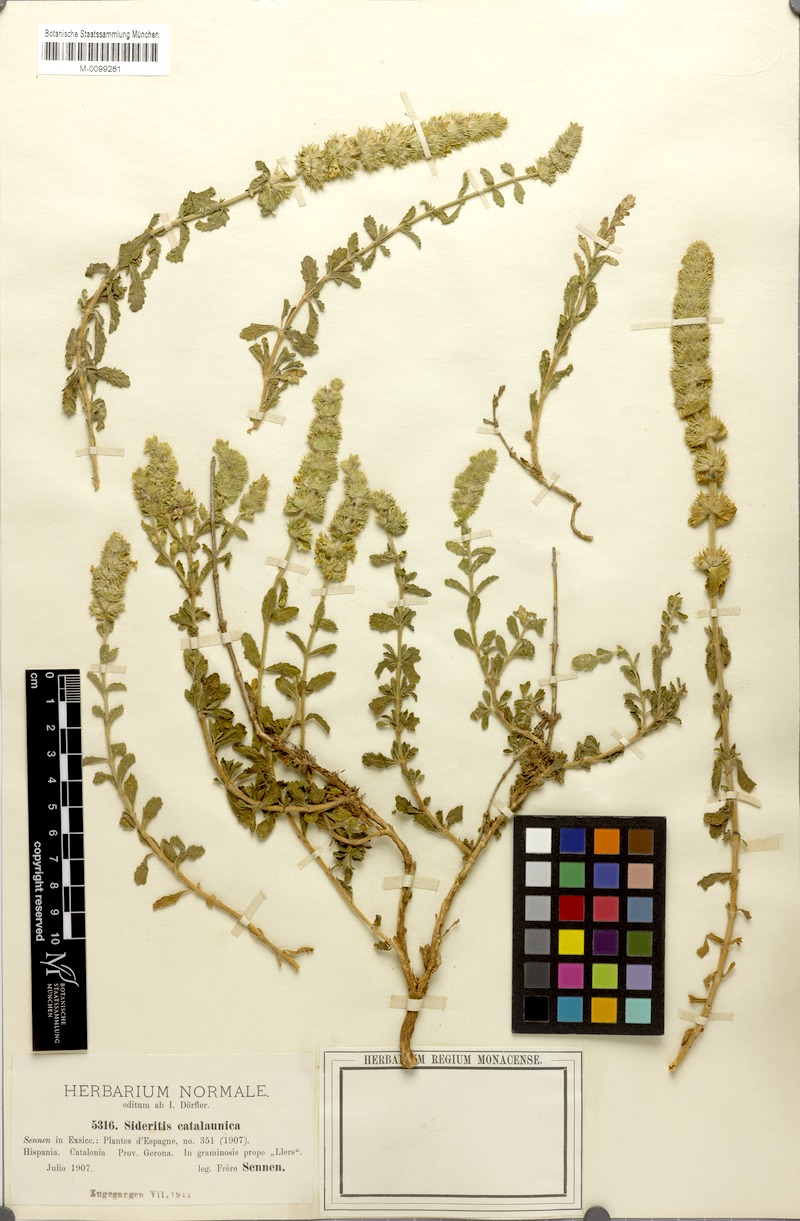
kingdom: Plantae
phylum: Tracheophyta
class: Magnoliopsida
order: Lamiales
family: Lamiaceae
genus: Sideritis
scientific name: Sideritis endressii
